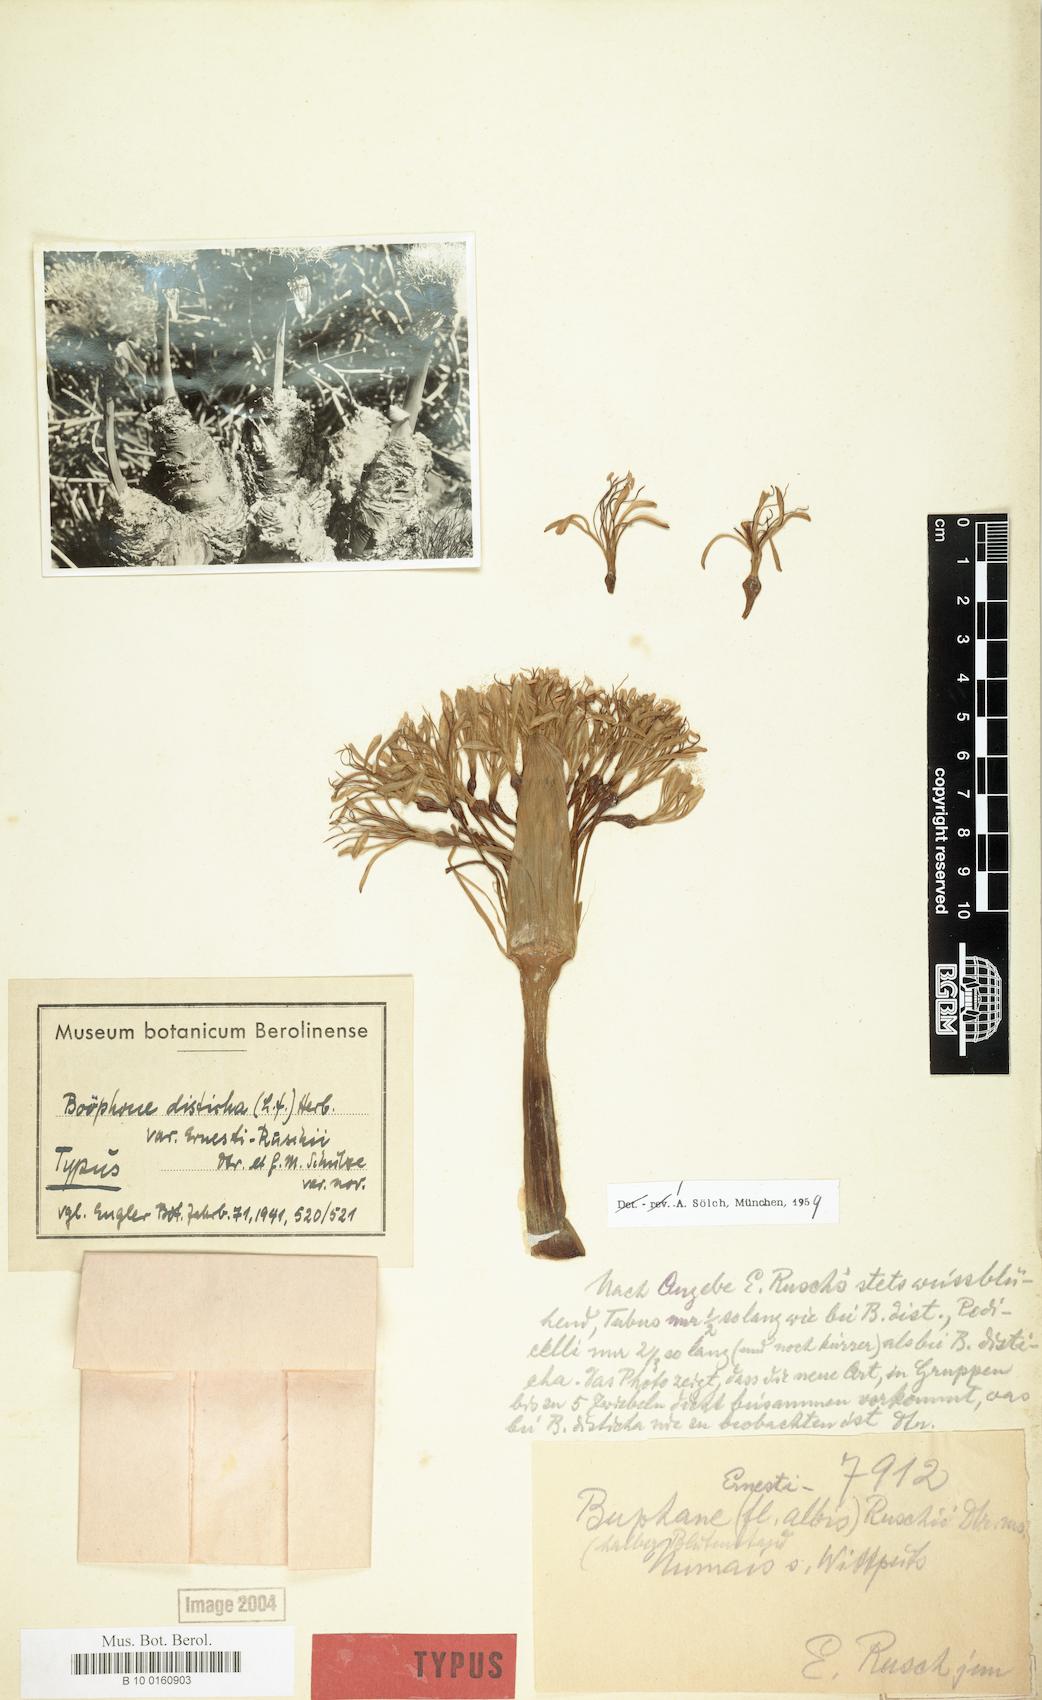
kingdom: Plantae
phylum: Tracheophyta
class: Liliopsida
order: Asparagales
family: Amaryllidaceae
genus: Boophone
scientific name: Boophone haemanthoides
